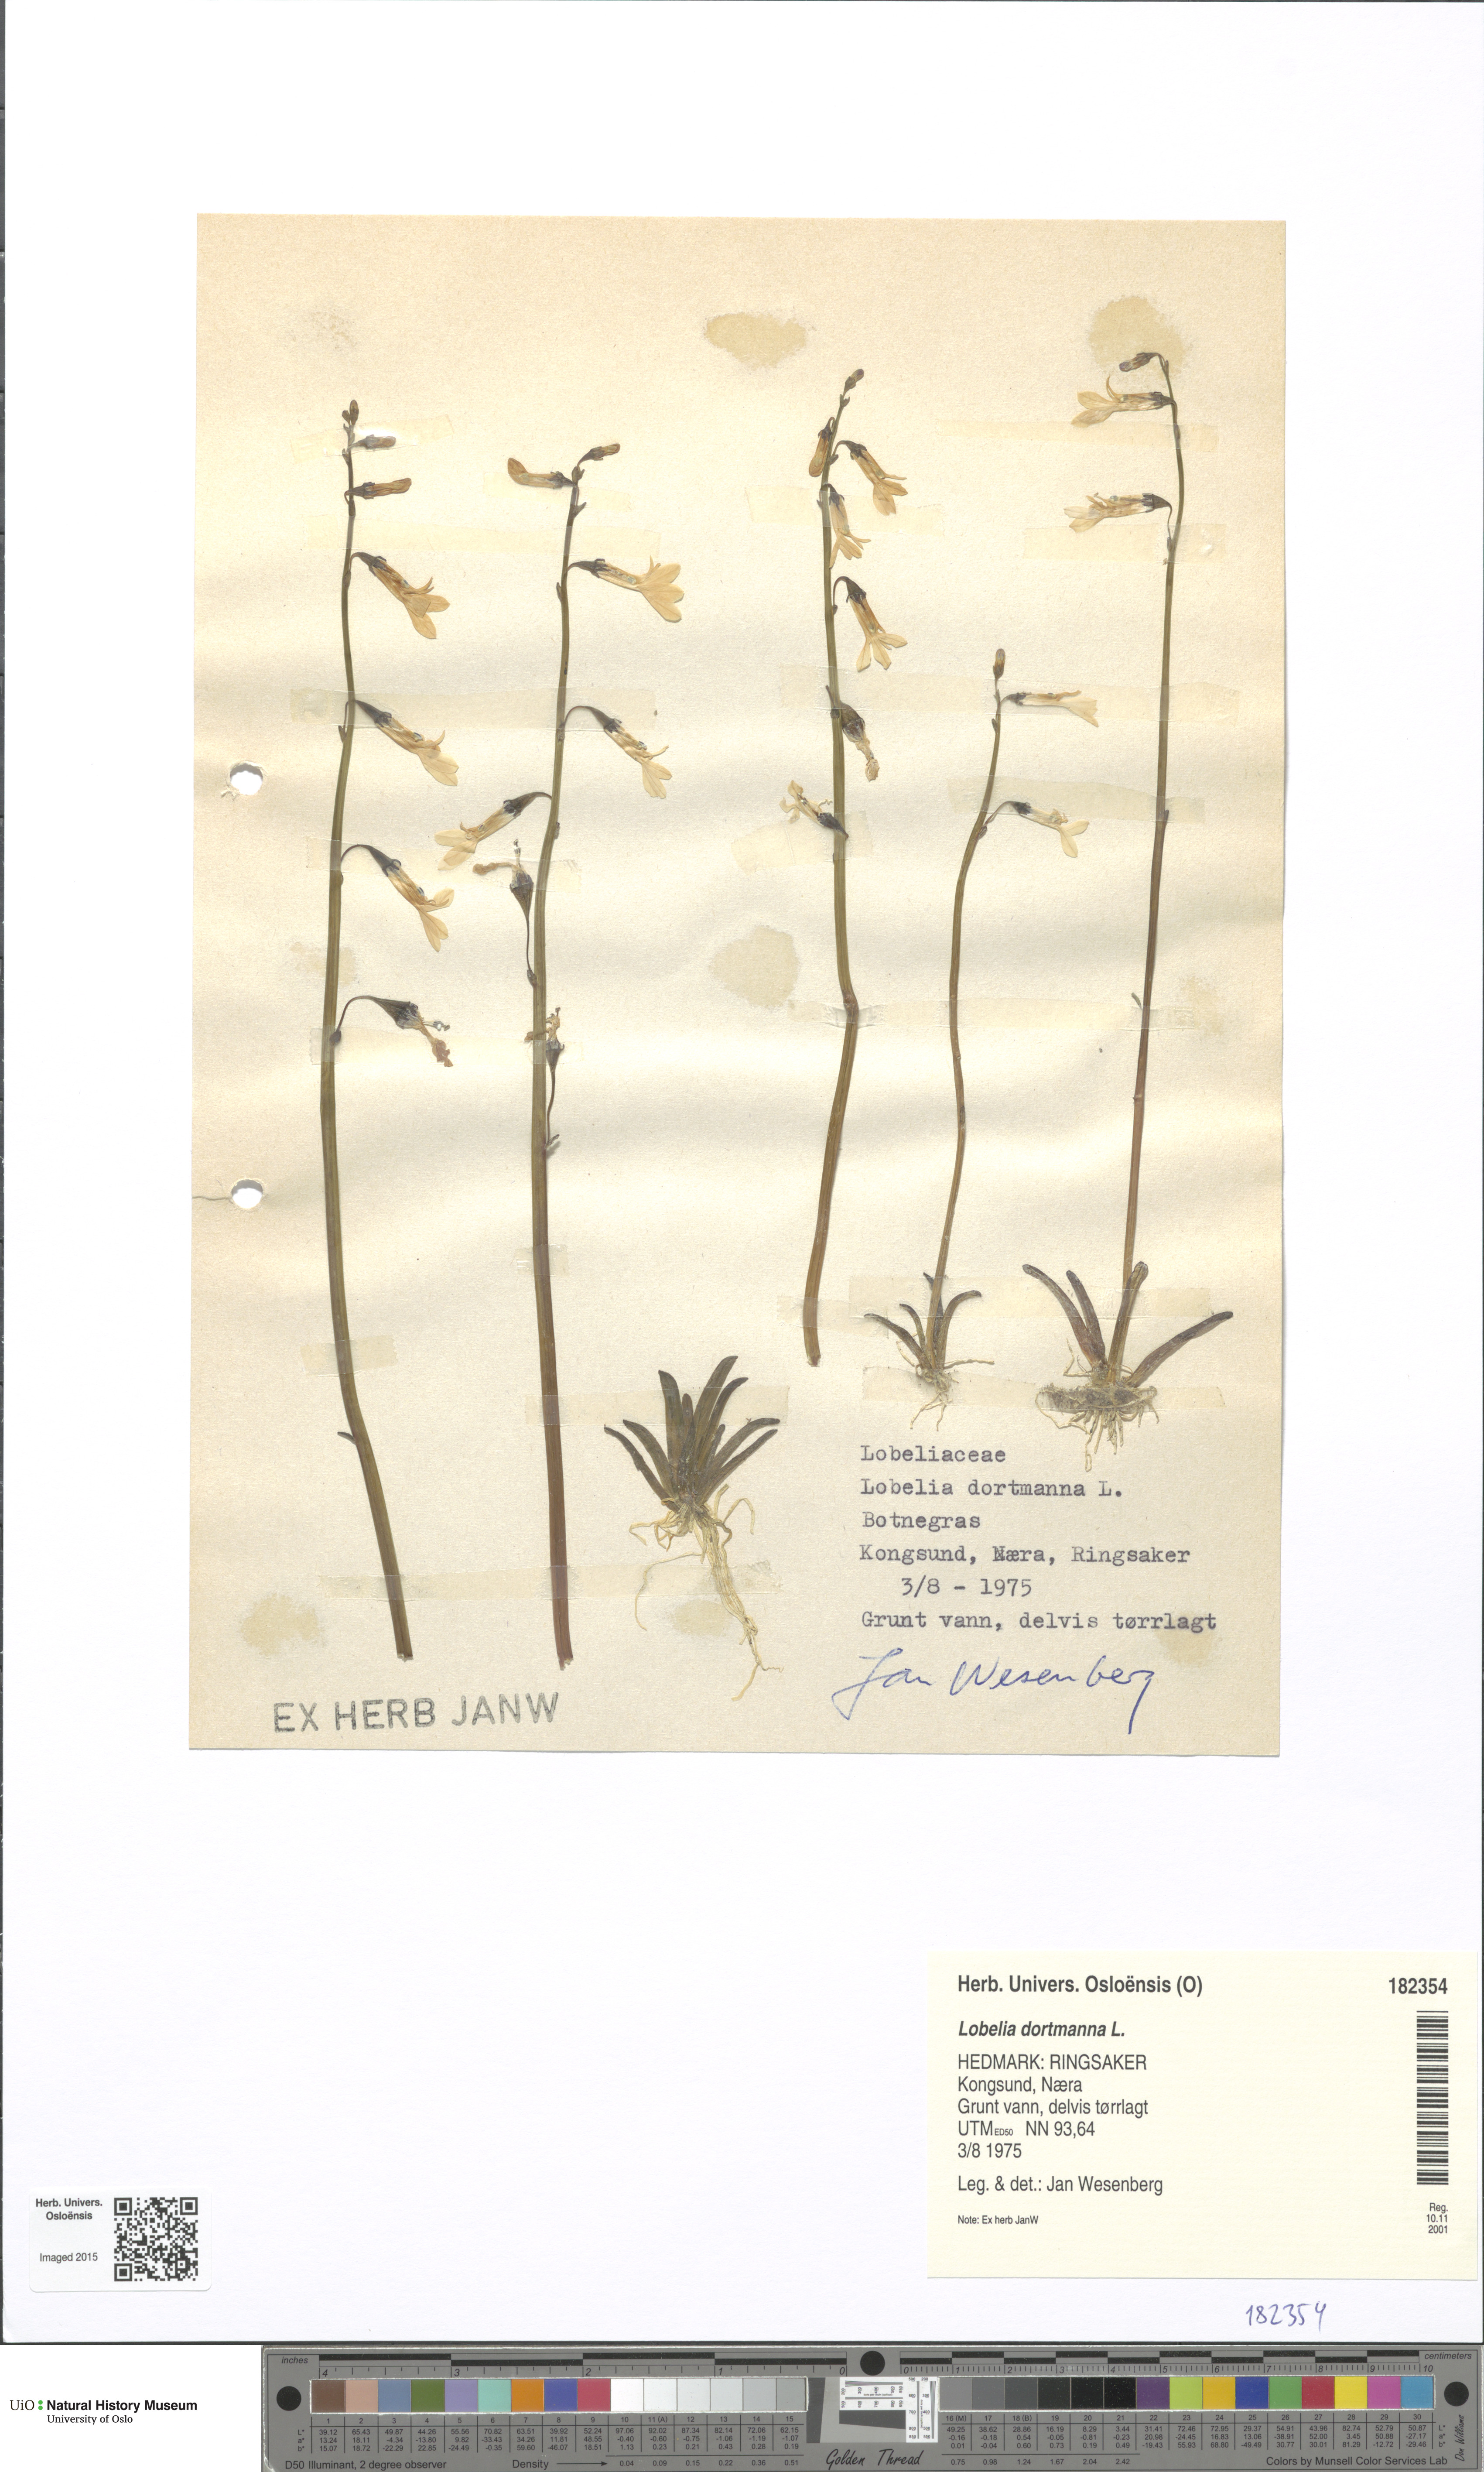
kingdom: Plantae
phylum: Tracheophyta
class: Magnoliopsida
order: Asterales
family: Campanulaceae
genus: Lobelia
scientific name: Lobelia dortmanna
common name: Water lobelia
